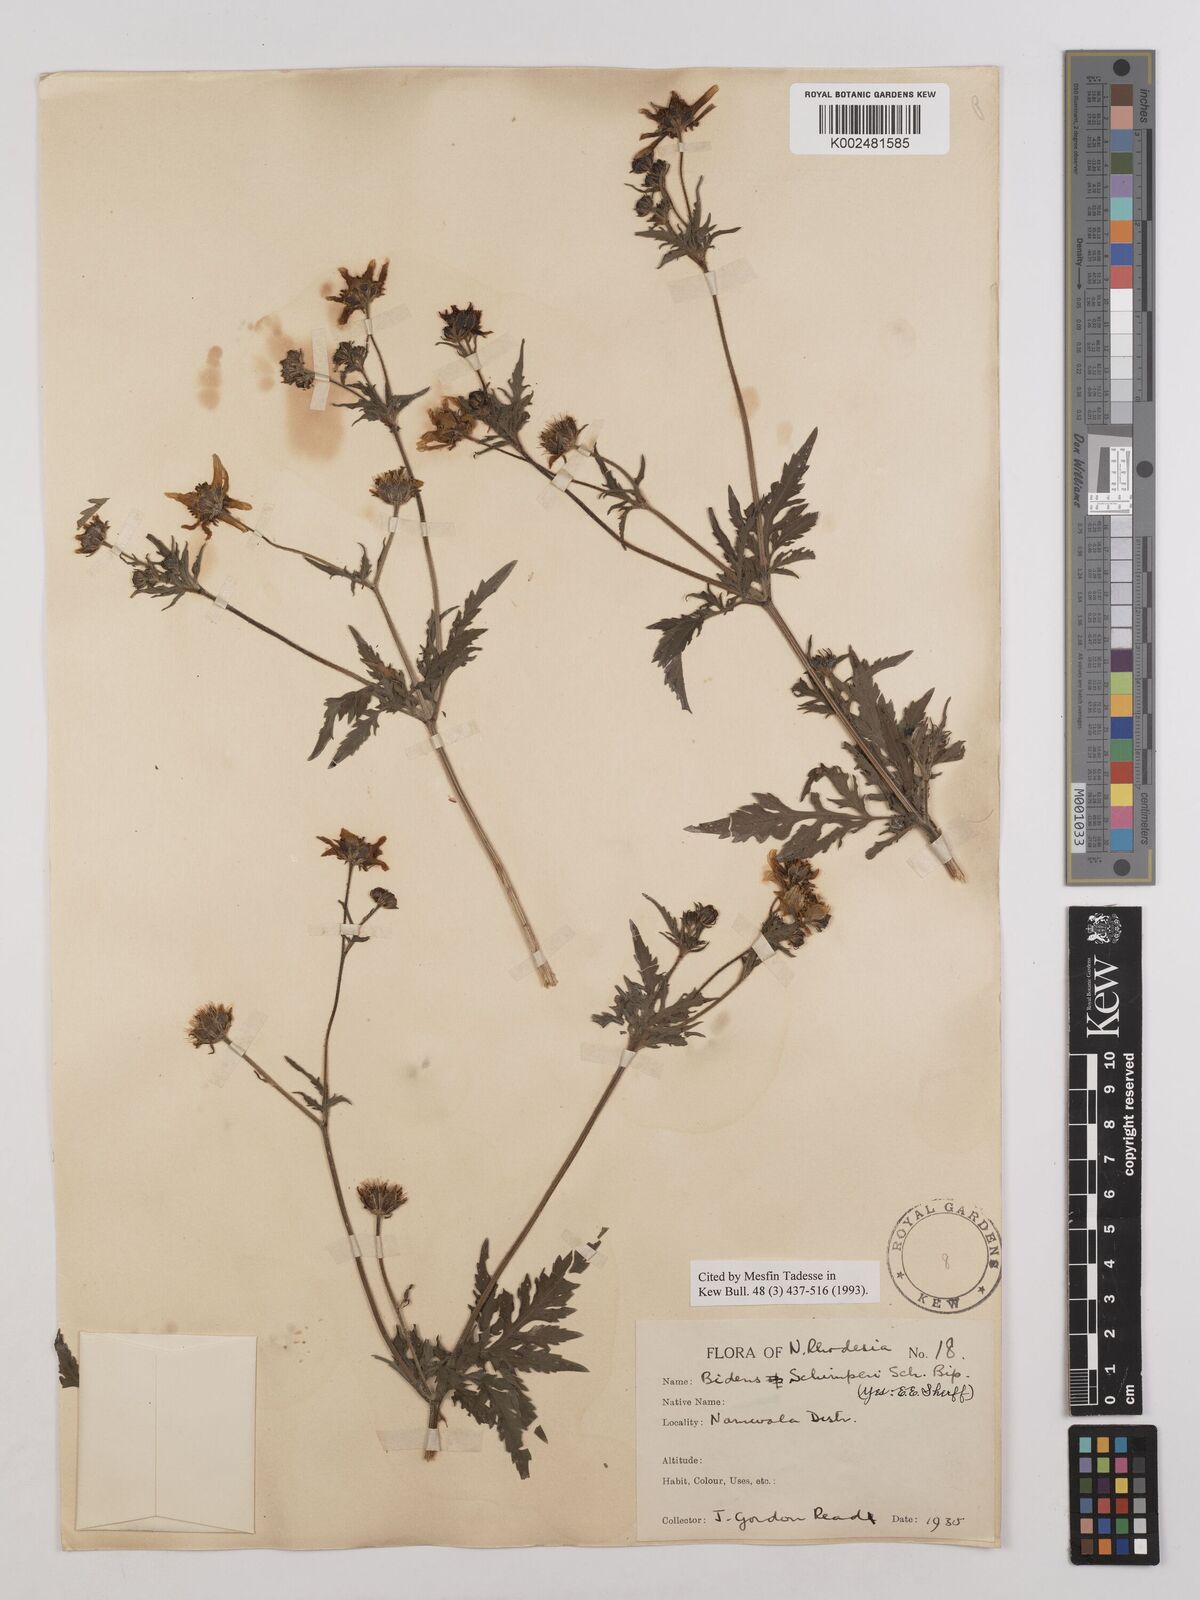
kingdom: Plantae
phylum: Tracheophyta
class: Magnoliopsida
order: Asterales
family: Asteraceae
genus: Bidens
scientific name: Bidens schimperi
